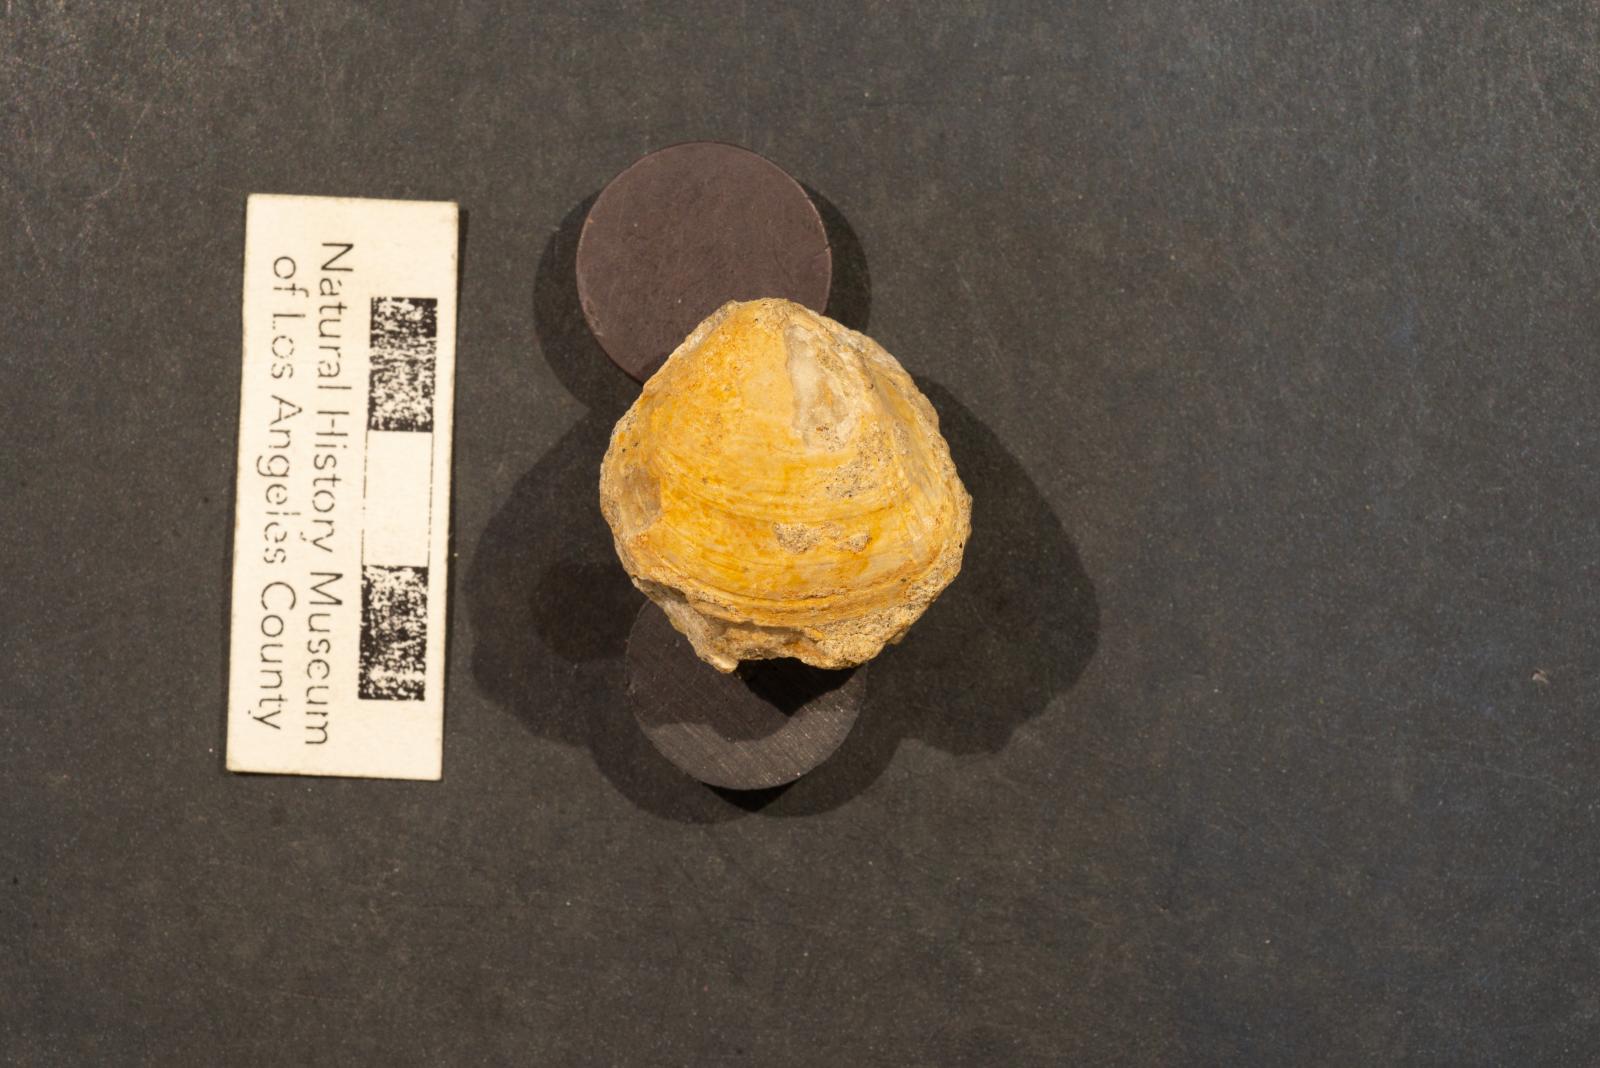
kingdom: Animalia
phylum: Mollusca
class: Bivalvia
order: Cardiida
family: Cardiidae
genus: Protocardia
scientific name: Protocardia Cardium placerensis
